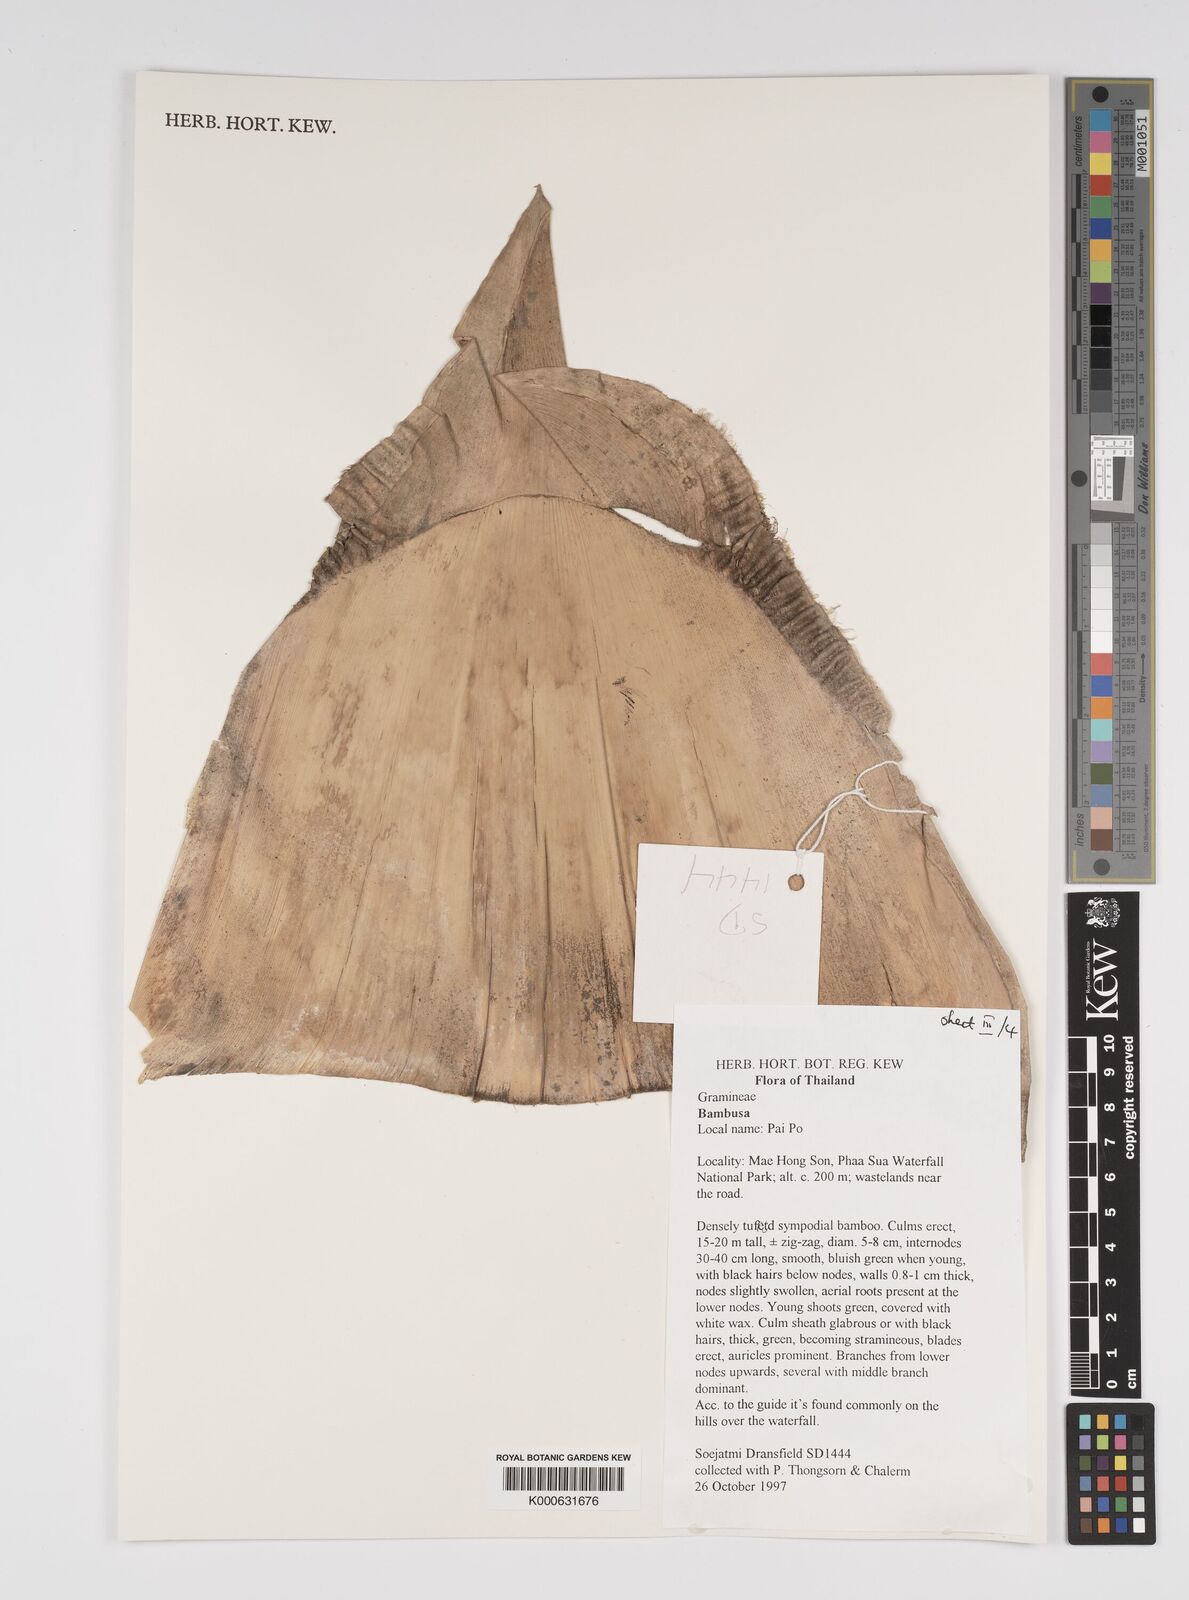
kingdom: Plantae
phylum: Tracheophyta
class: Liliopsida
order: Poales
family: Poaceae
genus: Bambusa
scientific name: Bambusa
